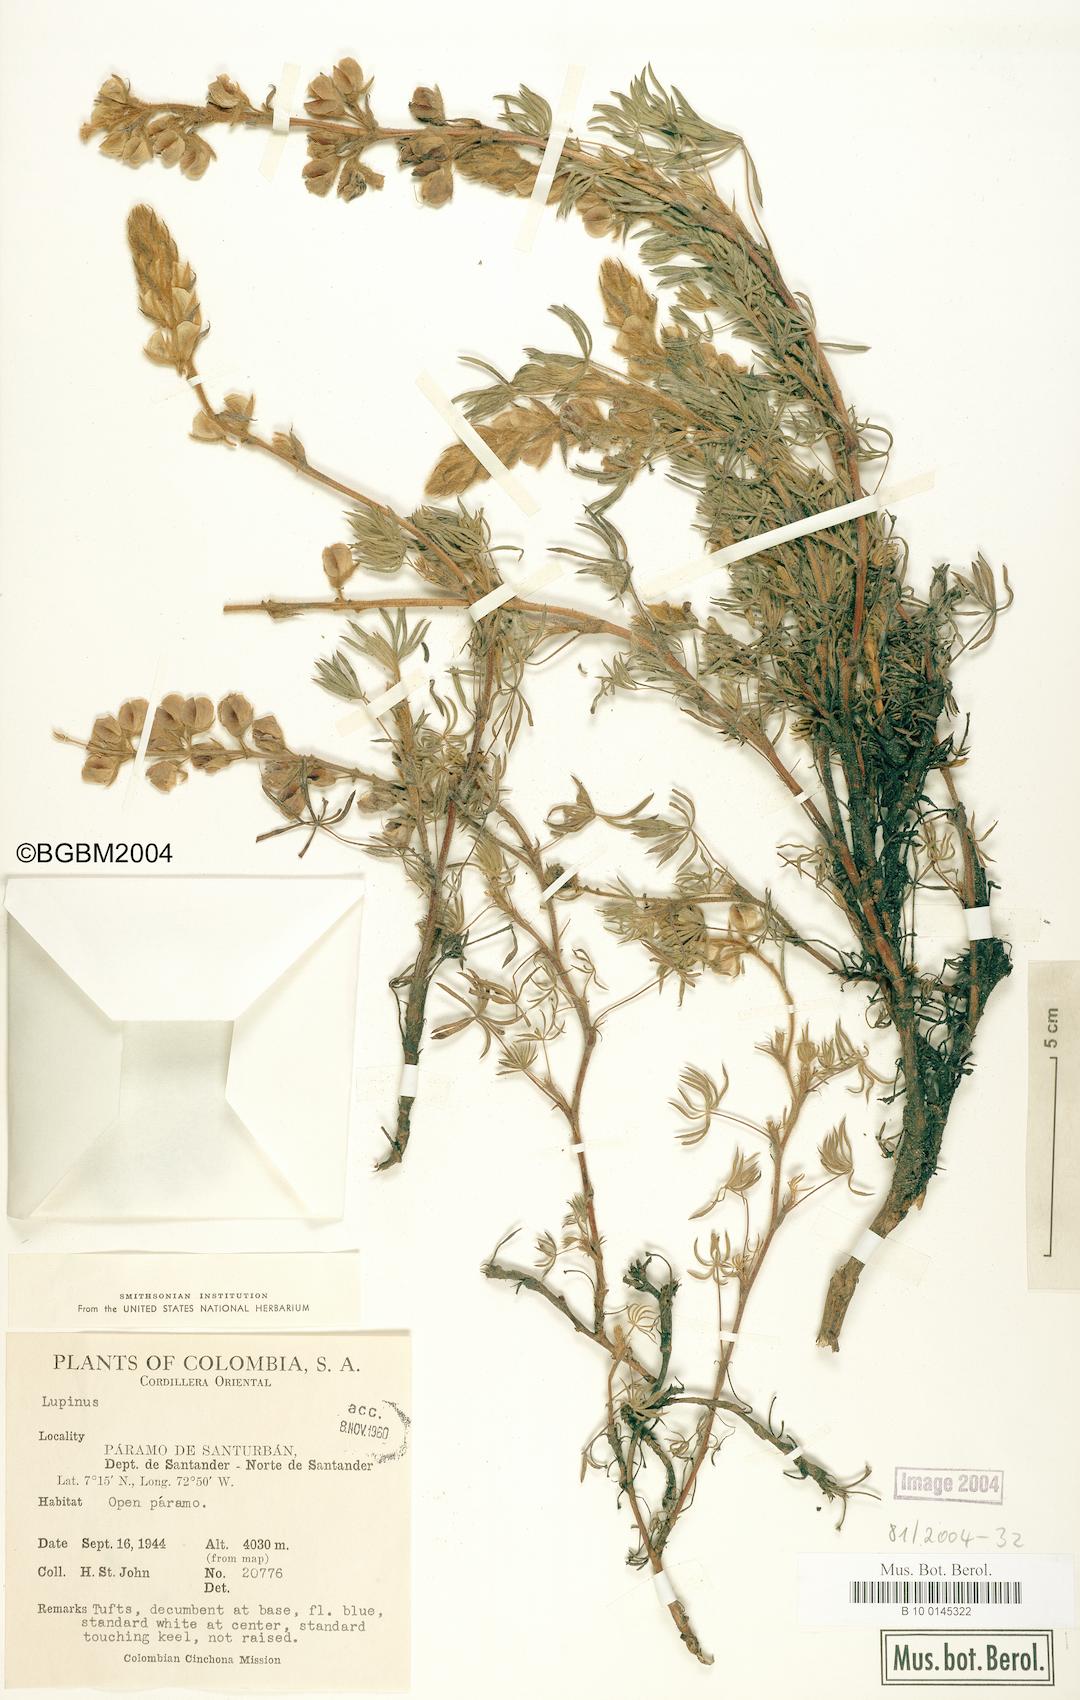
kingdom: Plantae
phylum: Tracheophyta
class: Magnoliopsida
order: Fabales
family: Fabaceae
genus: Lupinus
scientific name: Lupinus
